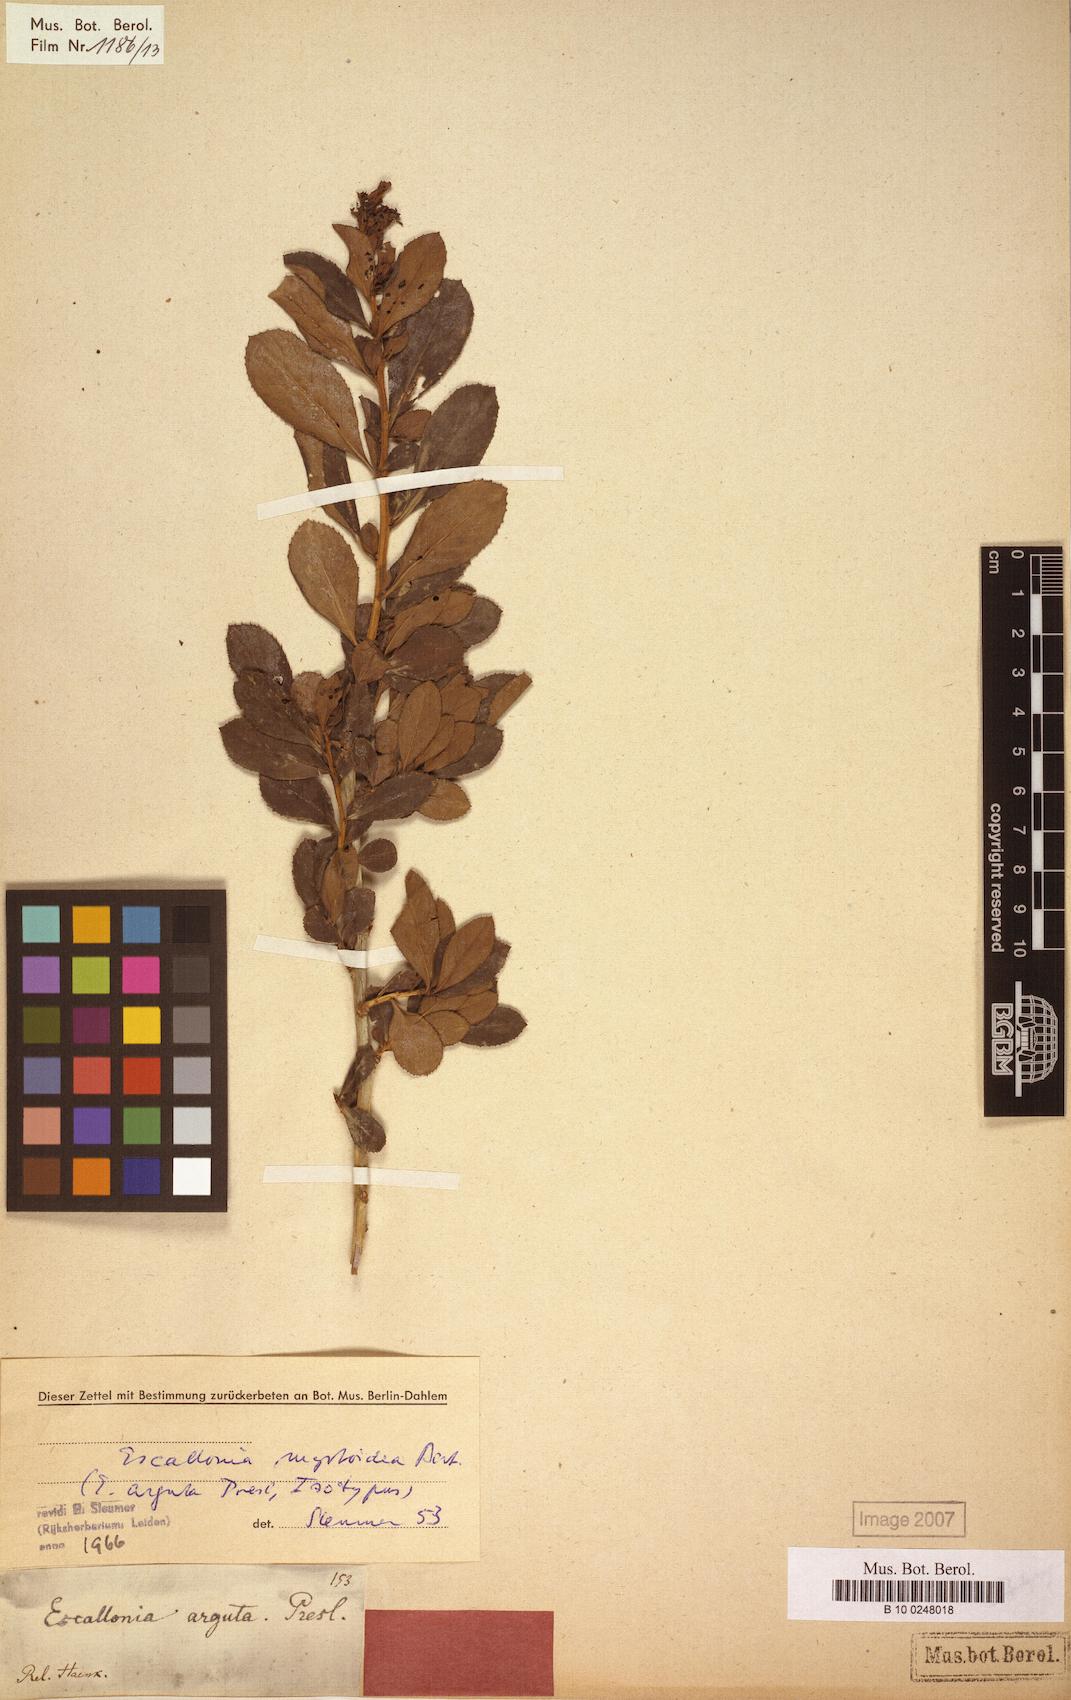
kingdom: Plantae
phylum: Tracheophyta
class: Magnoliopsida
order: Escalloniales
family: Escalloniaceae
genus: Escallonia
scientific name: Escallonia myrtoidea
